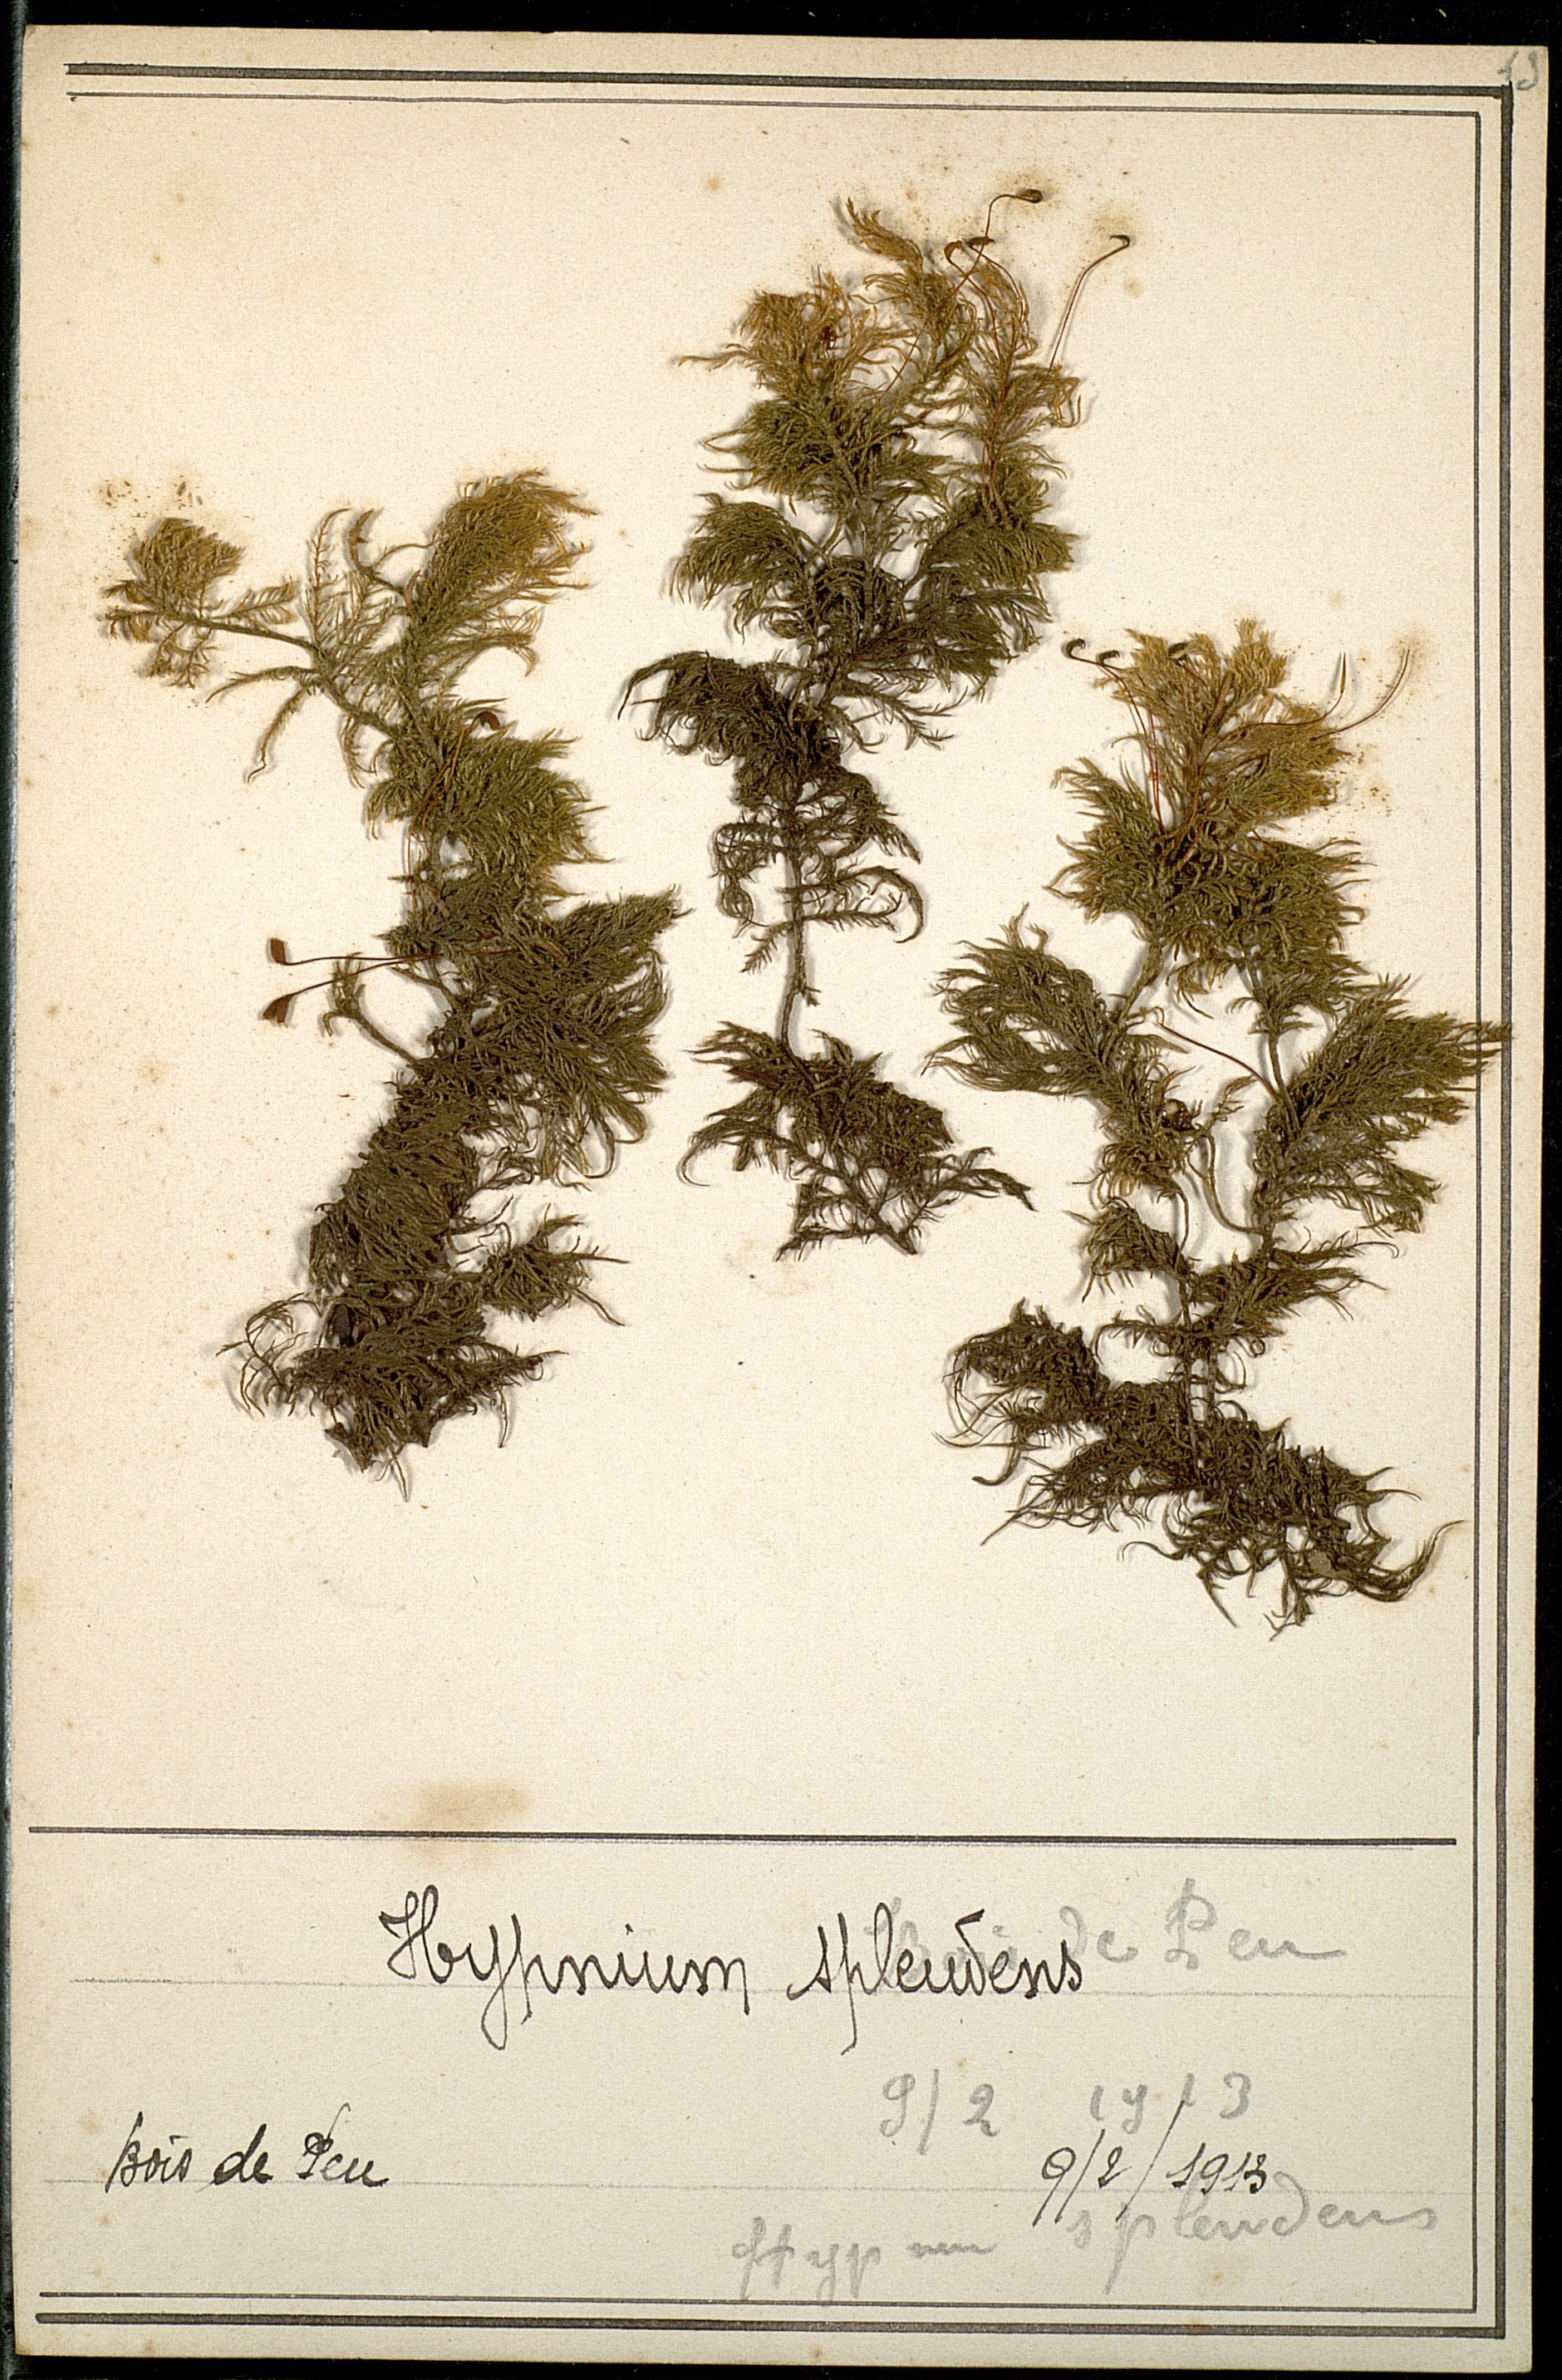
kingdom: Plantae
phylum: Bryophyta
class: Bryopsida
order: Hypnales
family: Hylocomiaceae
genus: Hylocomium
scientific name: Hylocomium splendens
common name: Stairstep moss
